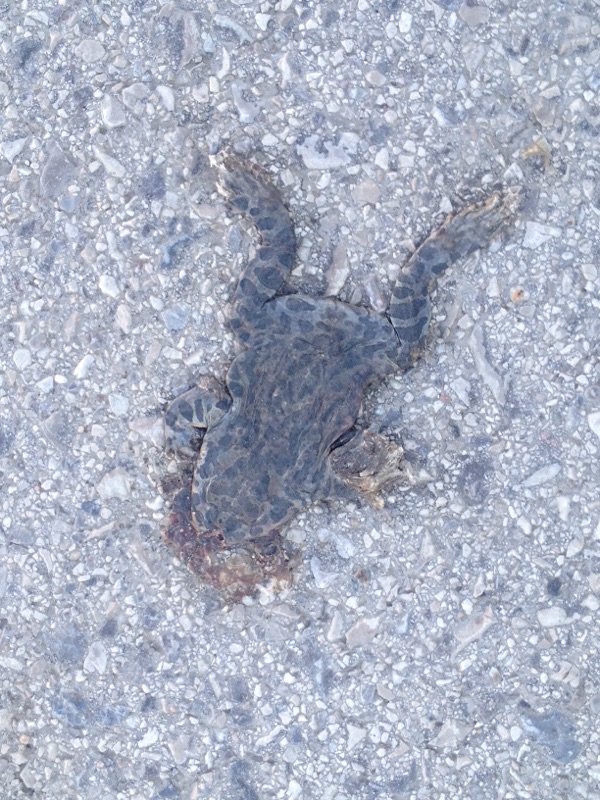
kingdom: Animalia
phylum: Chordata
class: Amphibia
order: Anura
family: Bufonidae
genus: Bufotes
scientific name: Bufotes viridis
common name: European green toad
